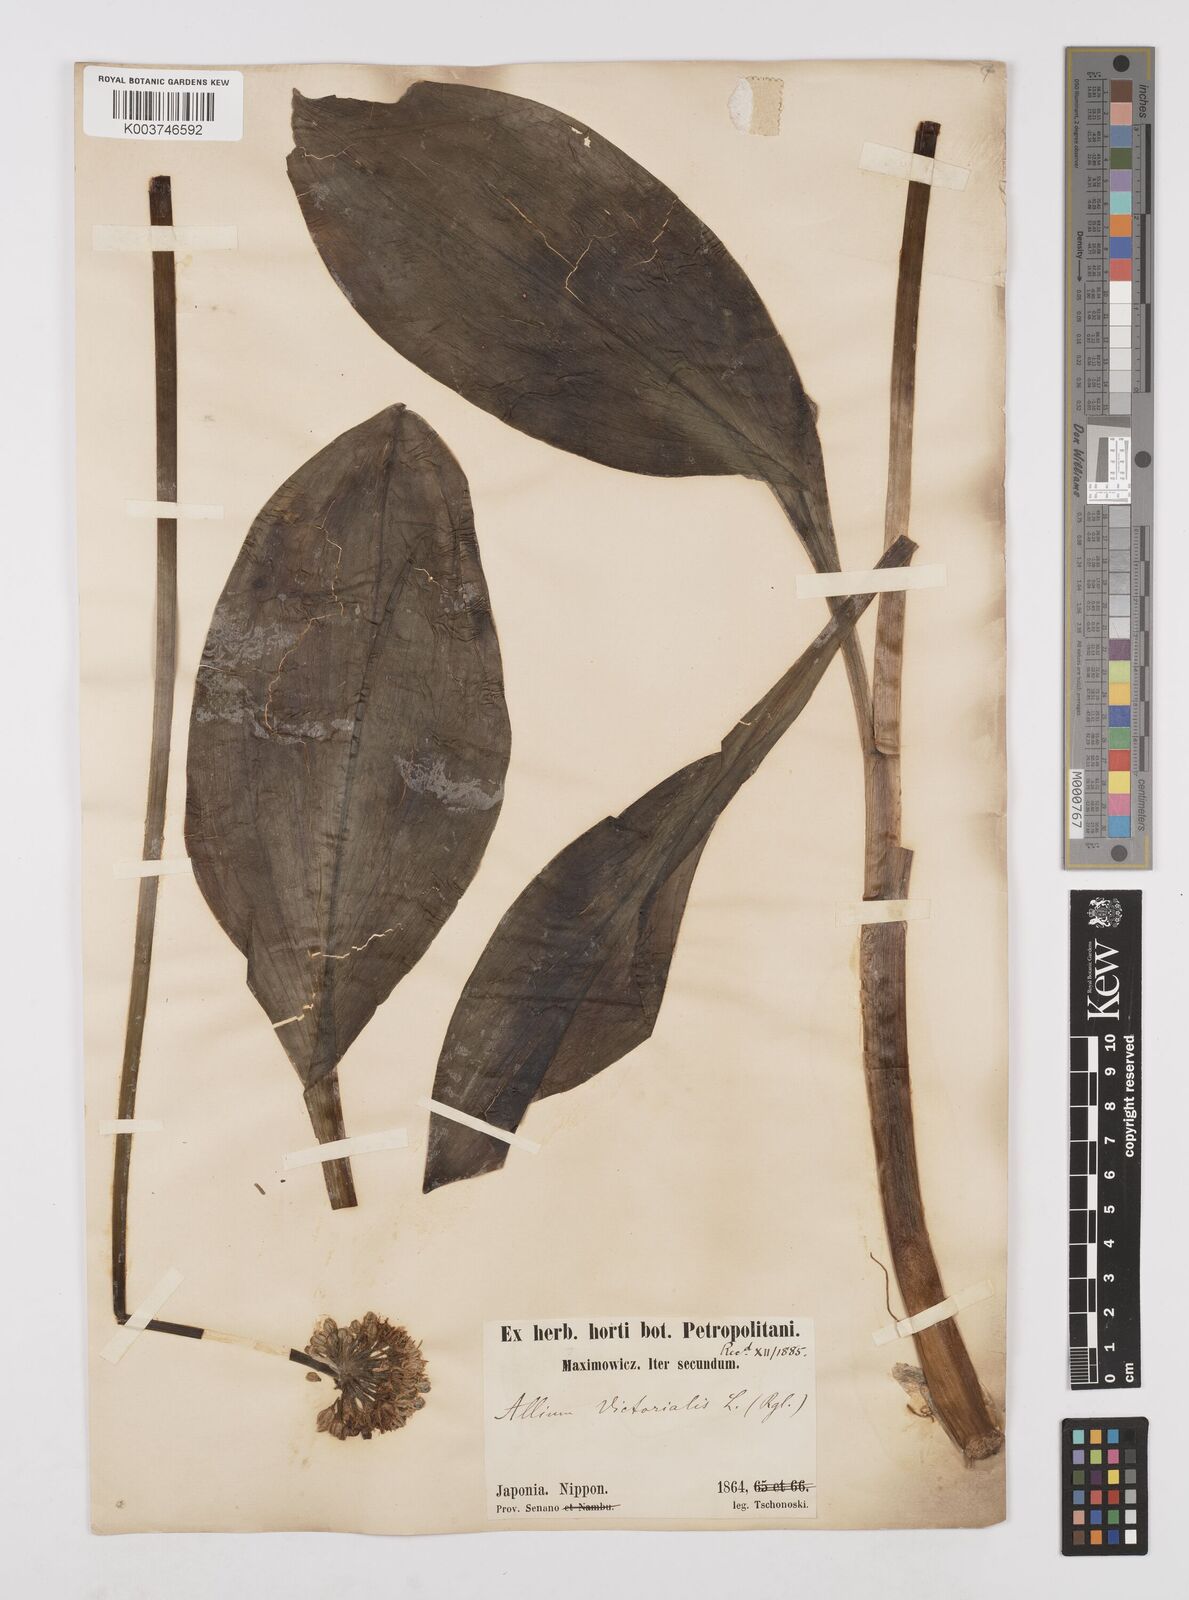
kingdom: Plantae
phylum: Tracheophyta
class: Liliopsida
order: Asparagales
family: Amaryllidaceae
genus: Allium
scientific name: Allium victorialis
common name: Alpine leek
